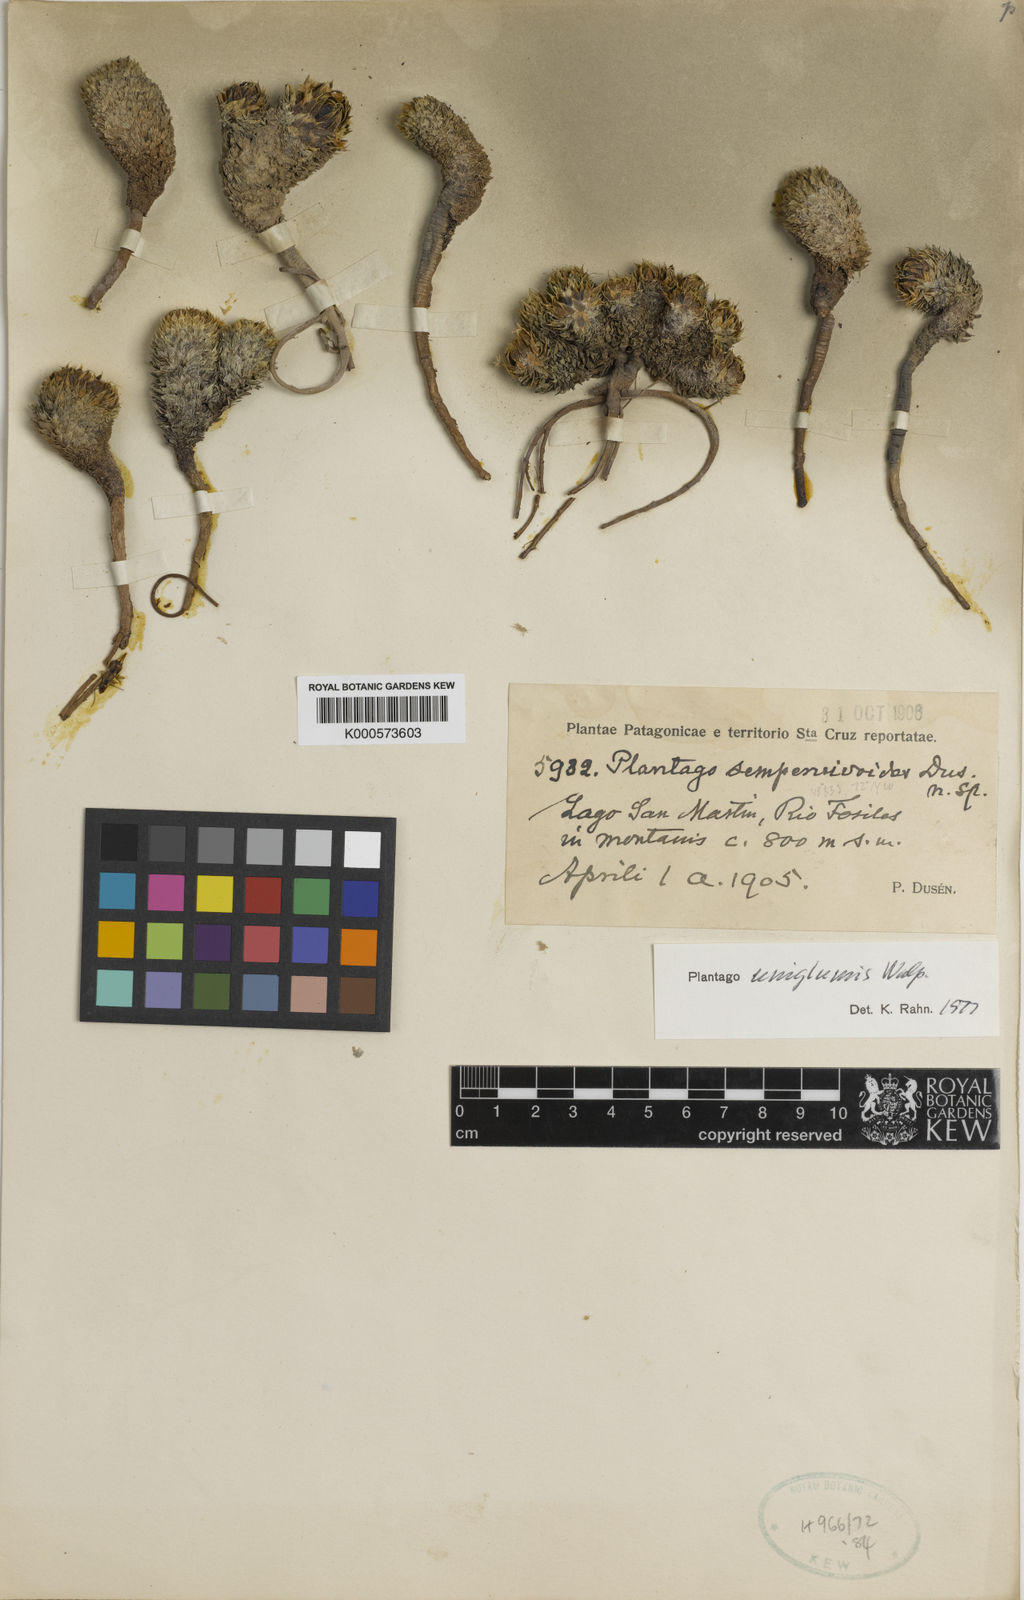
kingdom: Plantae
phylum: Tracheophyta
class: Magnoliopsida
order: Lamiales
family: Plantaginaceae
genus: Plantago
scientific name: Plantago uniglumis
